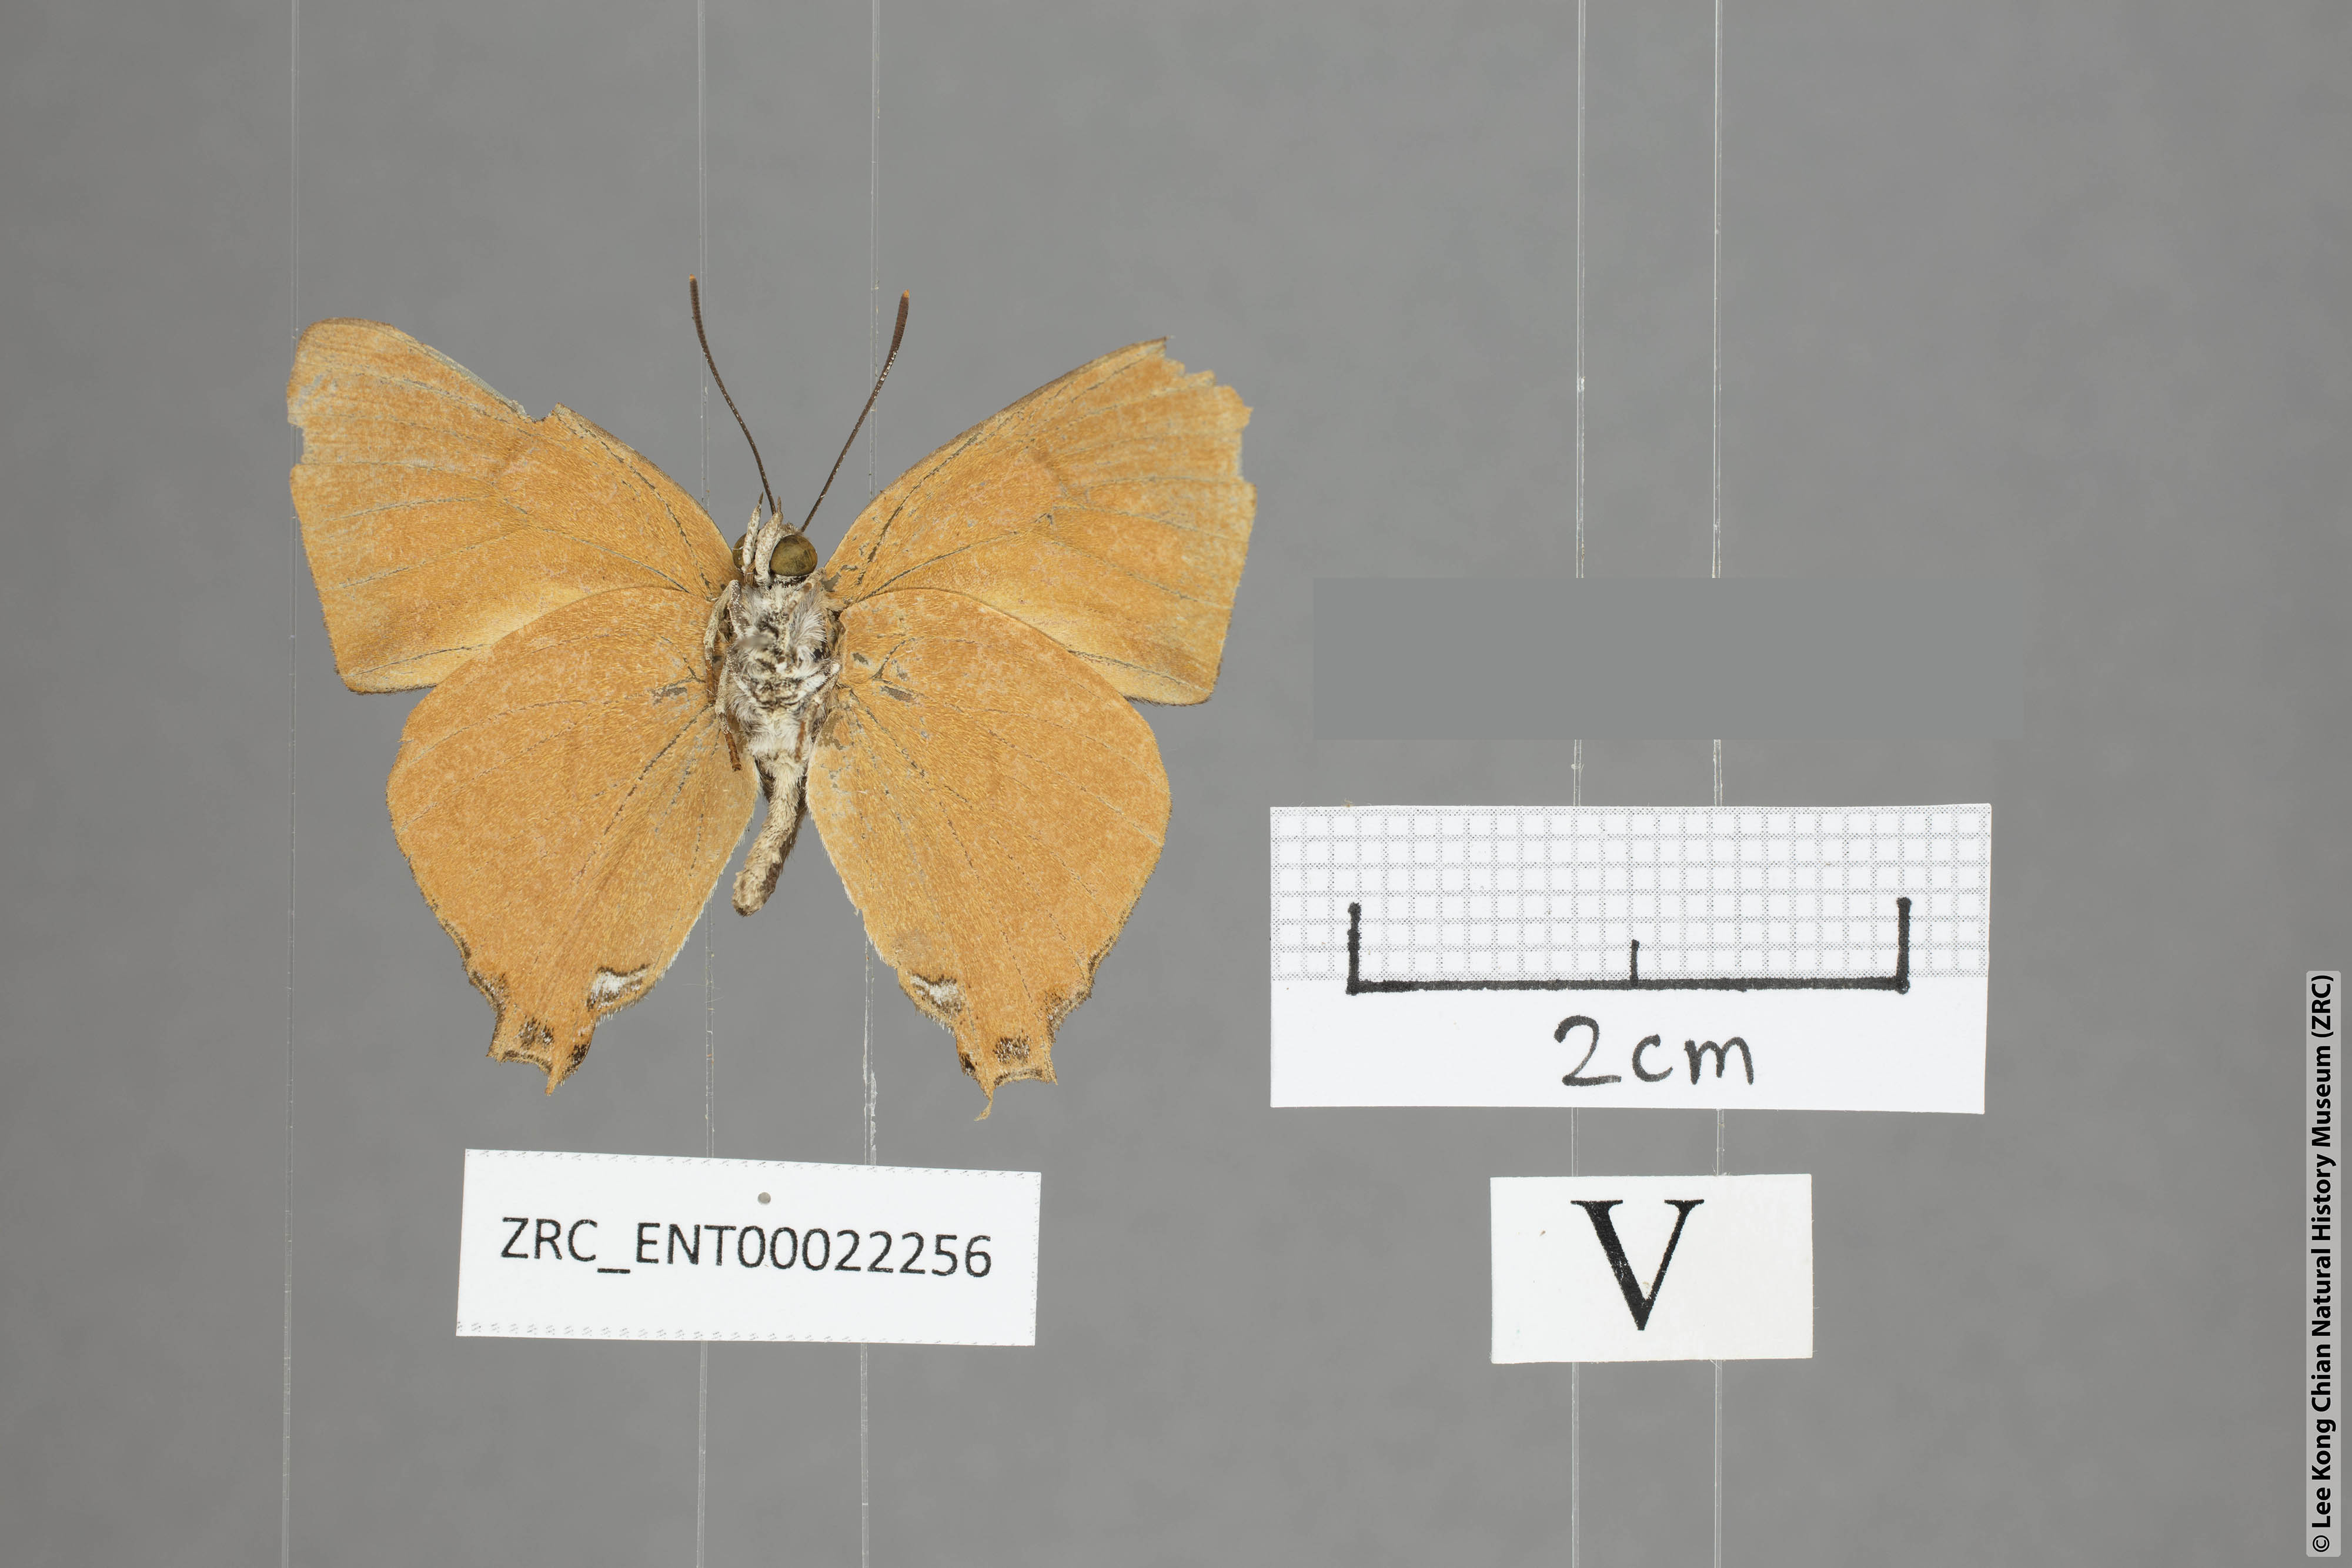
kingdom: Animalia
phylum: Arthropoda
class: Insecta
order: Lepidoptera
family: Lycaenidae
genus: Thamala
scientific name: Thamala marciana
